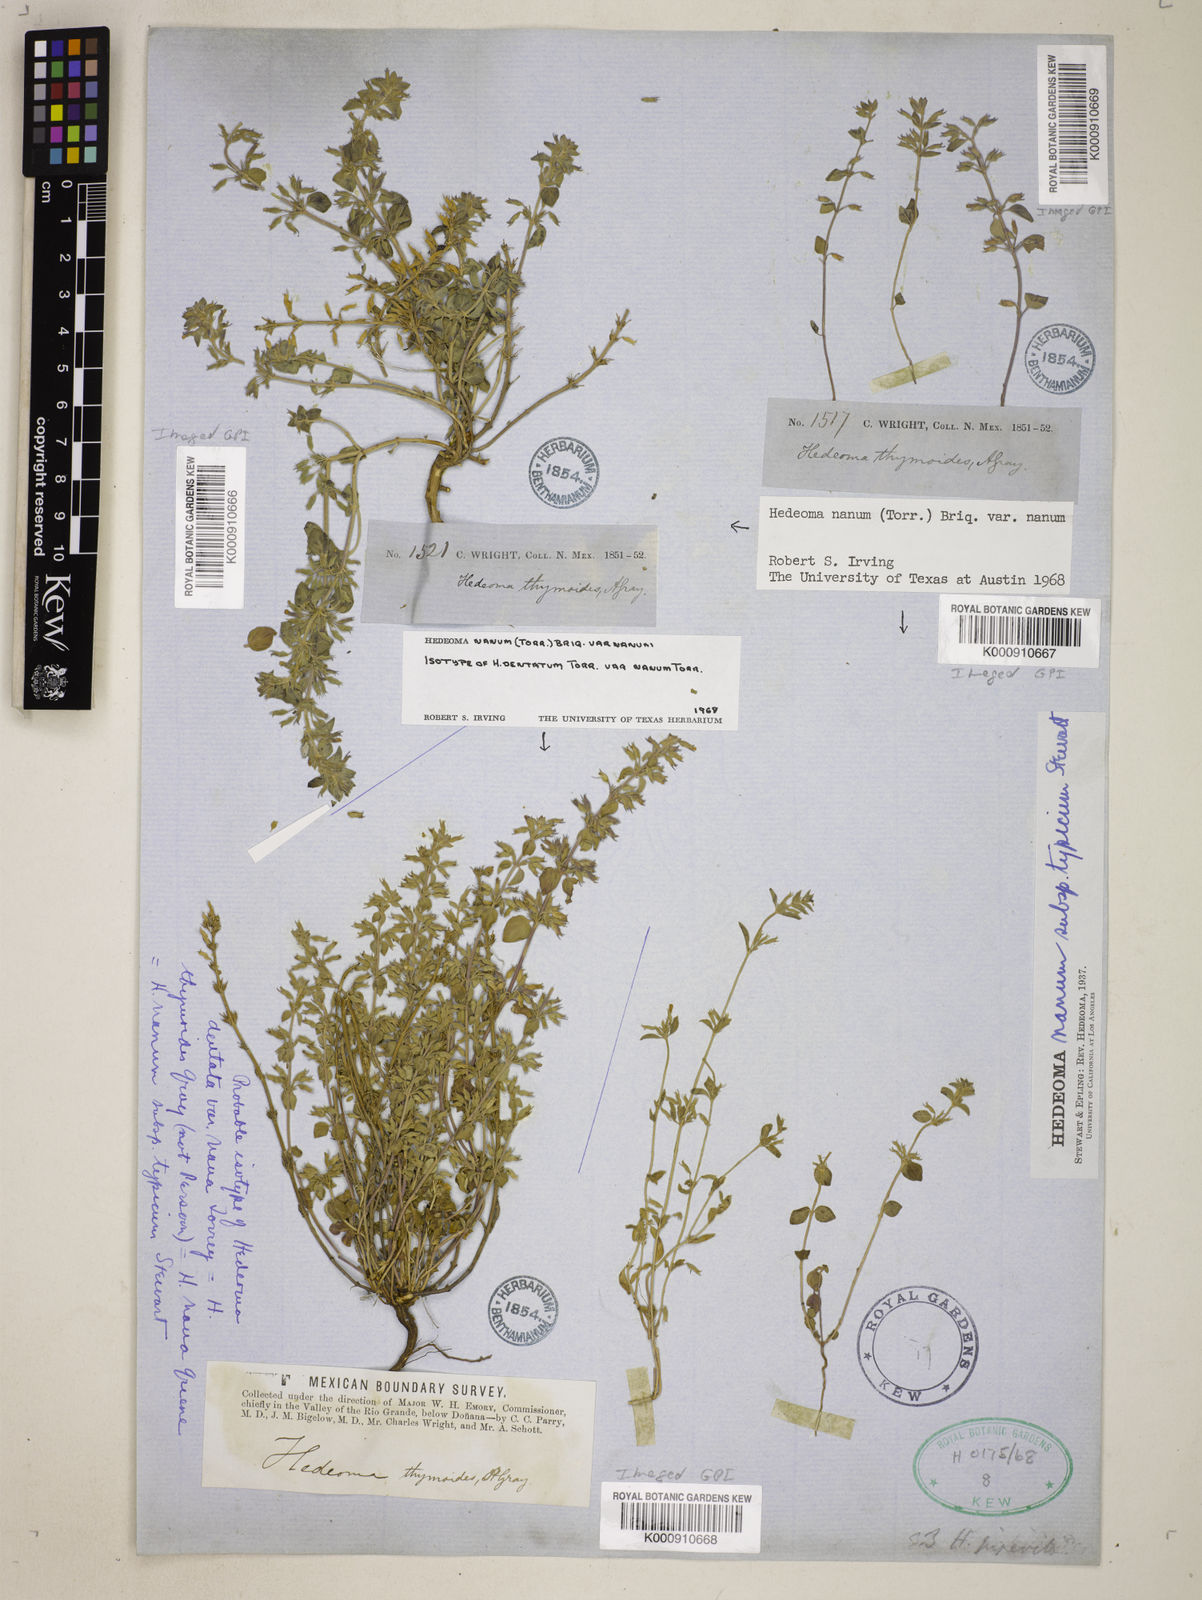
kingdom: Plantae
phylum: Tracheophyta
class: Magnoliopsida
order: Lamiales
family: Lamiaceae
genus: Hedeoma
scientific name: Hedeoma
